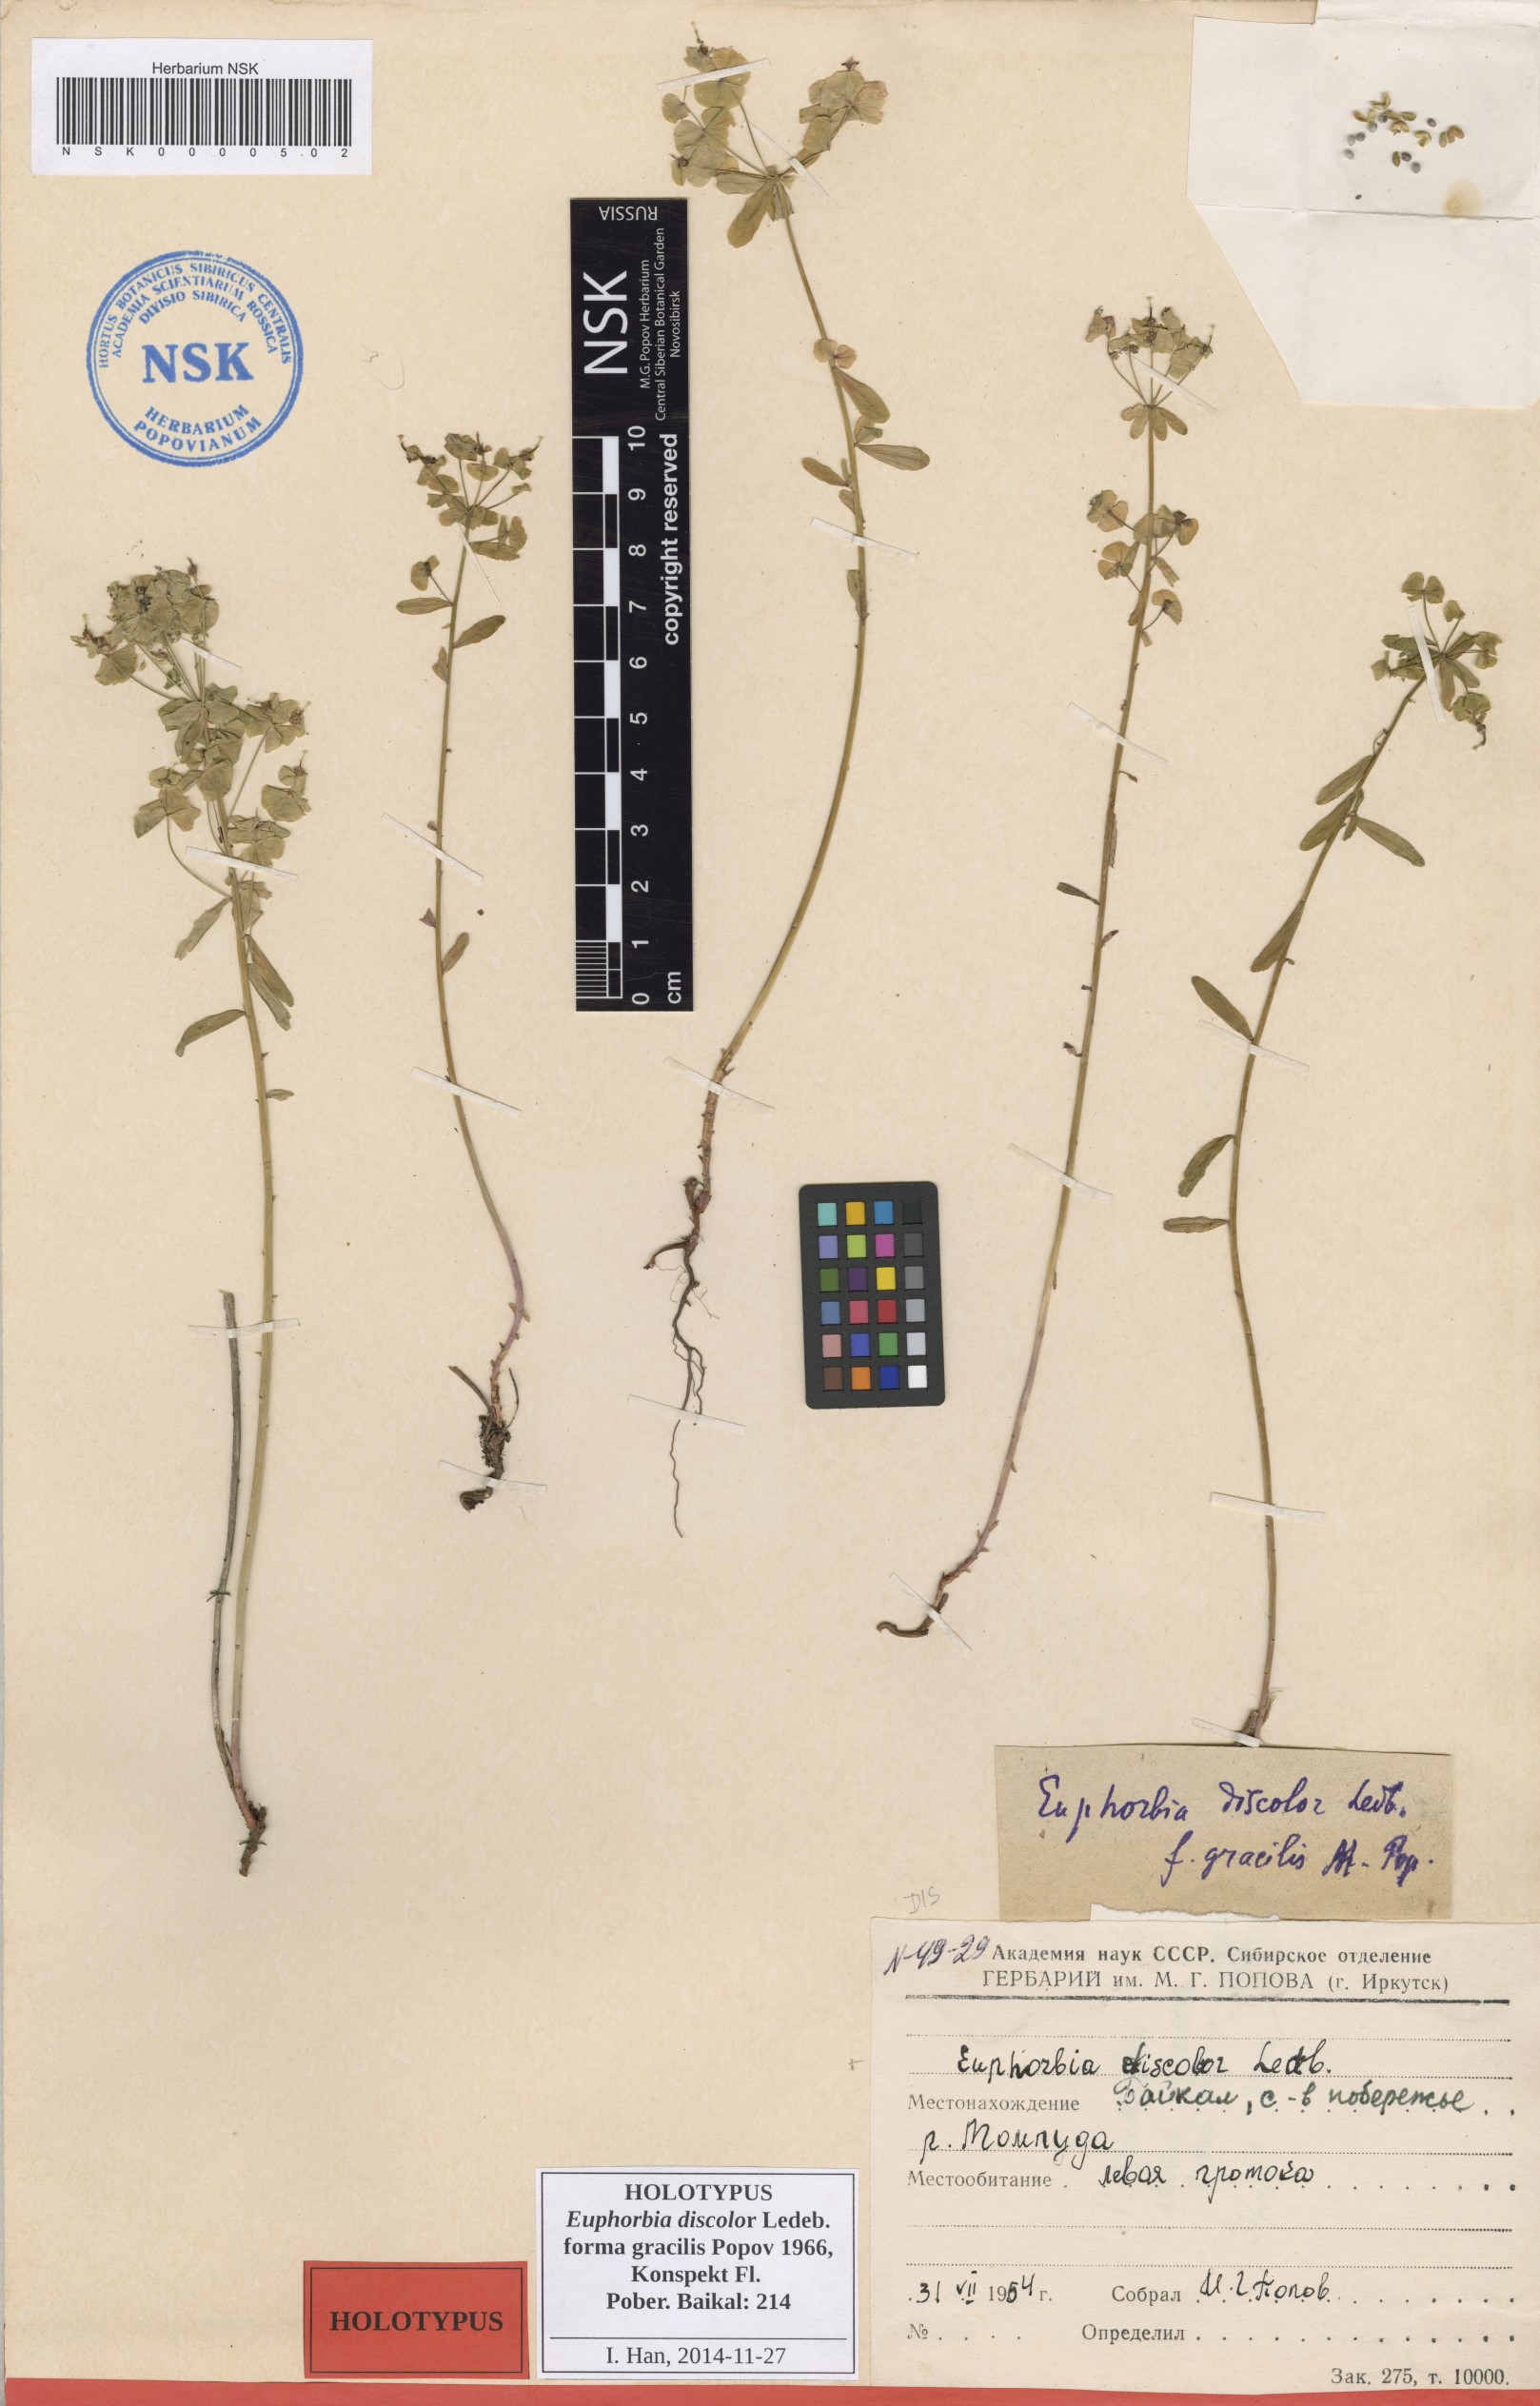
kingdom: Plantae
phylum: Tracheophyta
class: Magnoliopsida
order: Malpighiales
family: Euphorbiaceae
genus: Euphorbia
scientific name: Euphorbia esula
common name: Leafy spurge
